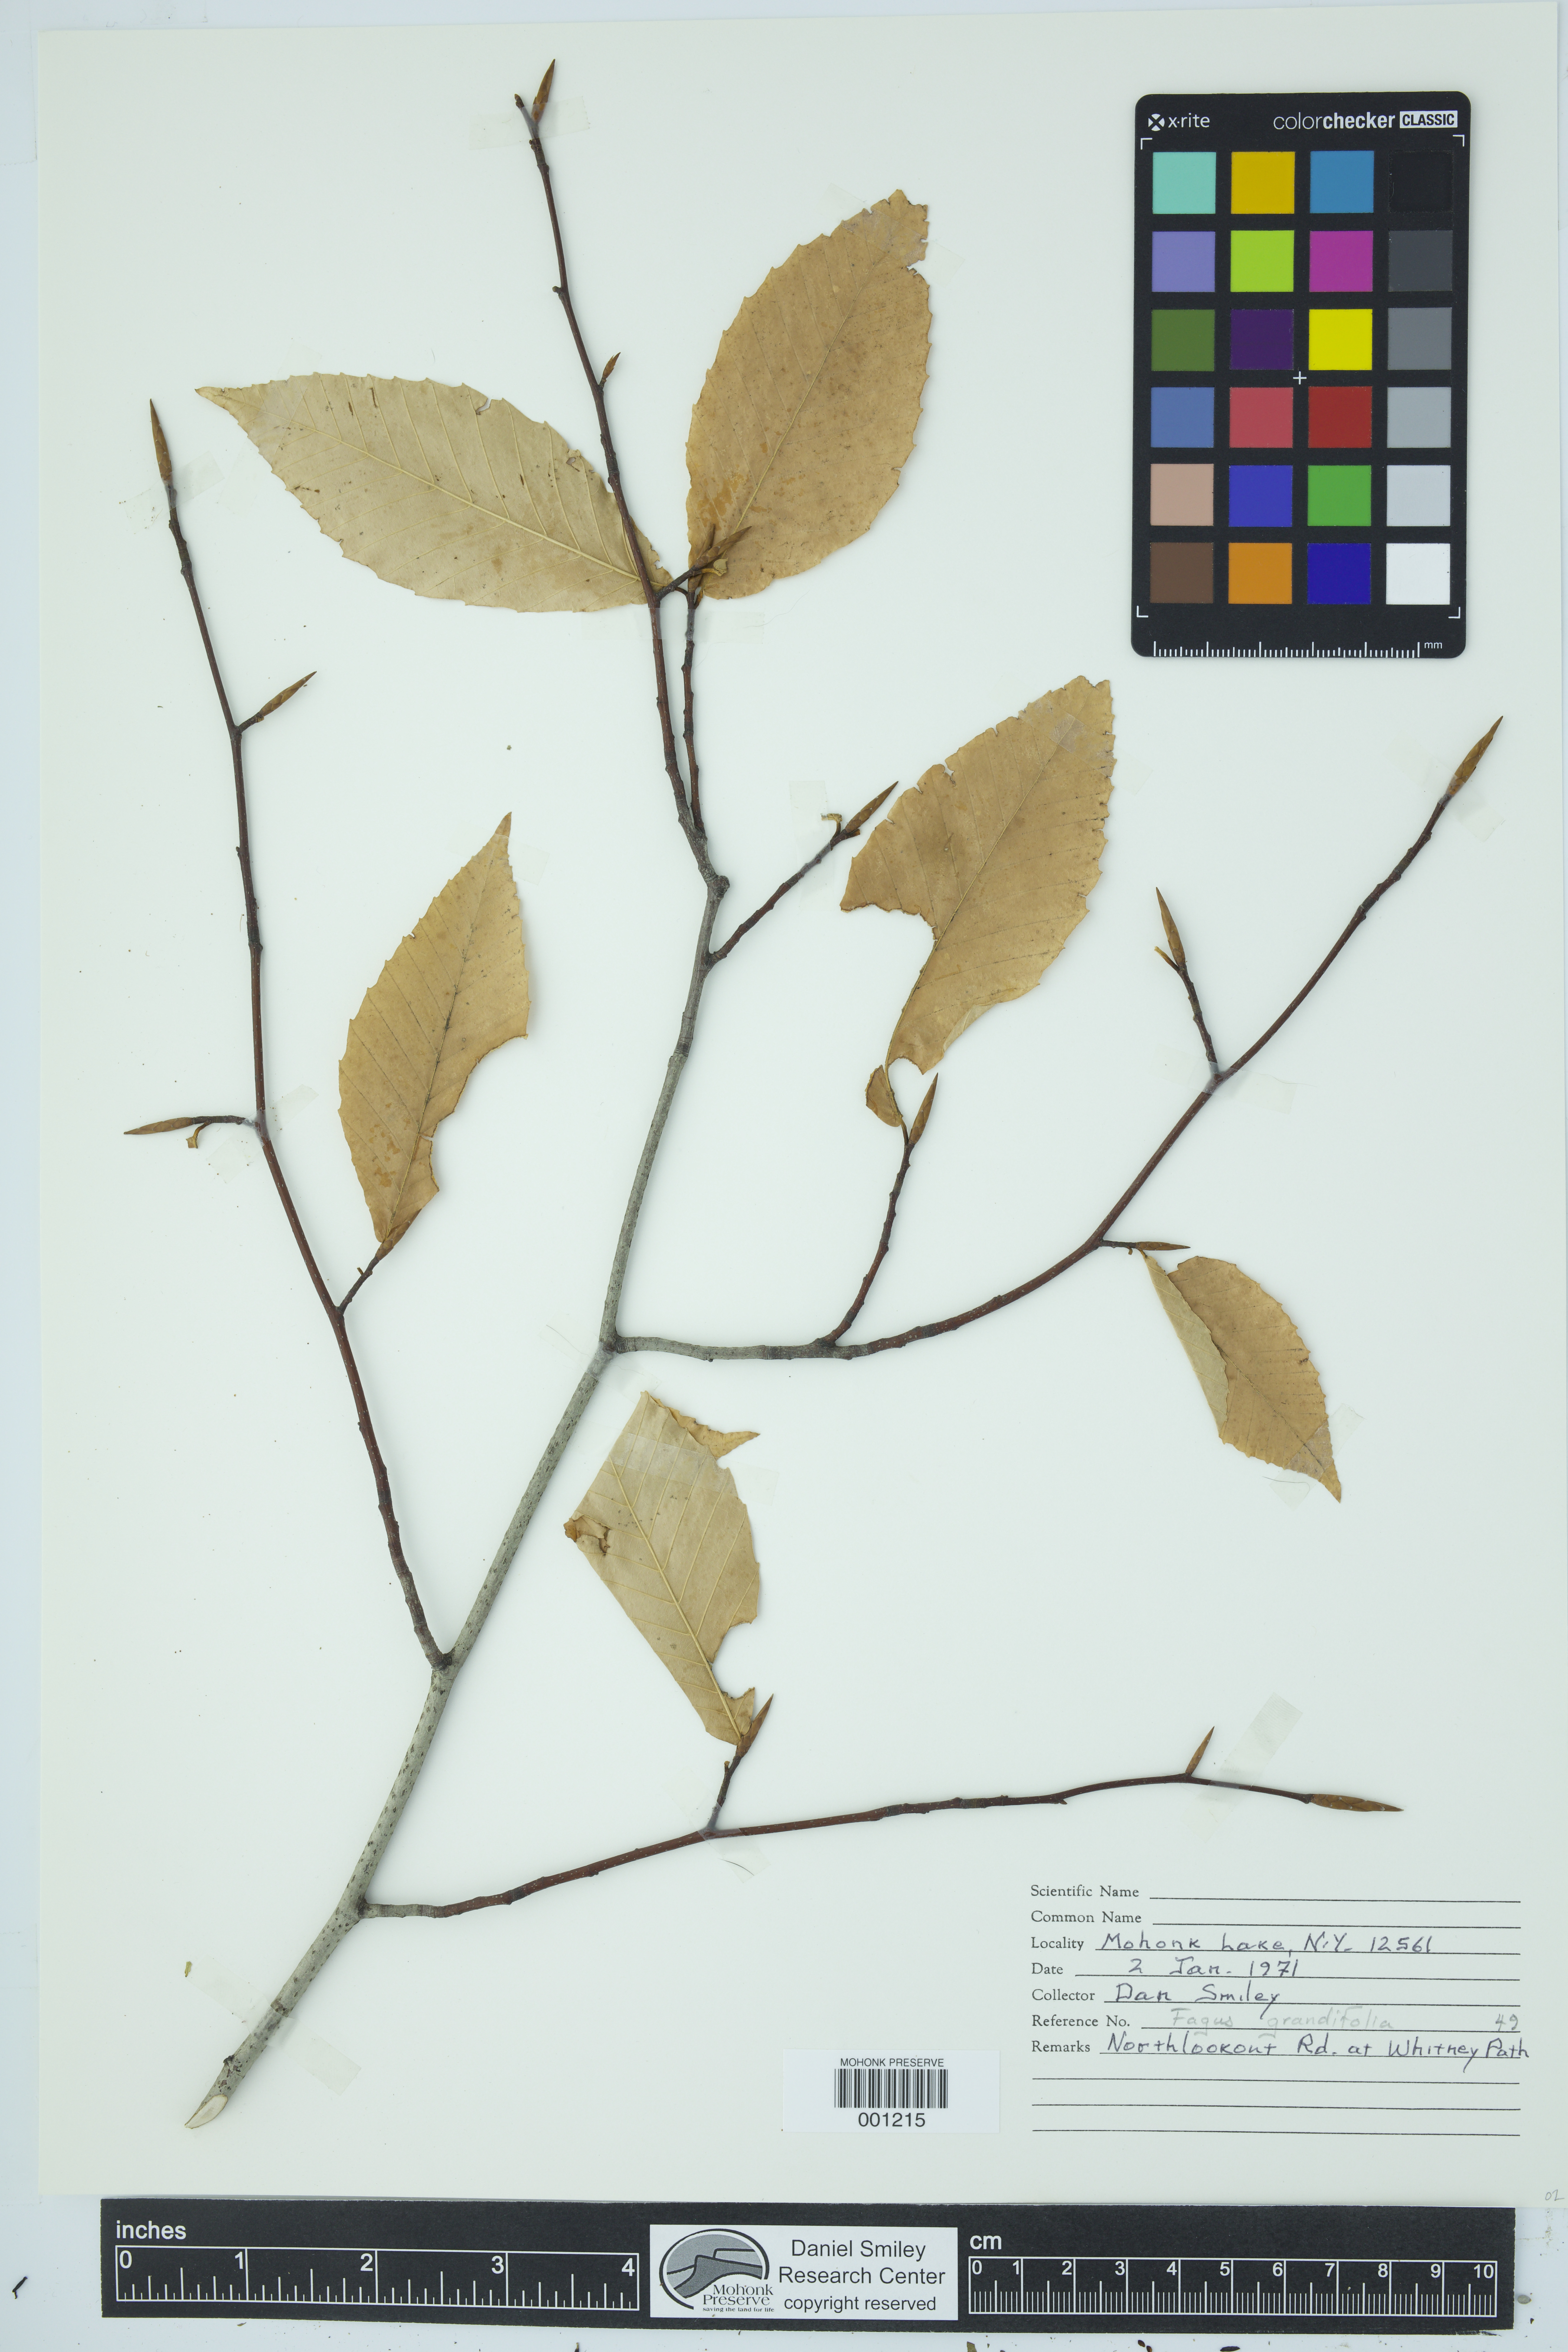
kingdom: Plantae
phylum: Tracheophyta
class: Magnoliopsida
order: Fagales
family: Fagaceae
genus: Fagus
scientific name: Fagus grandifolia
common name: American beech
